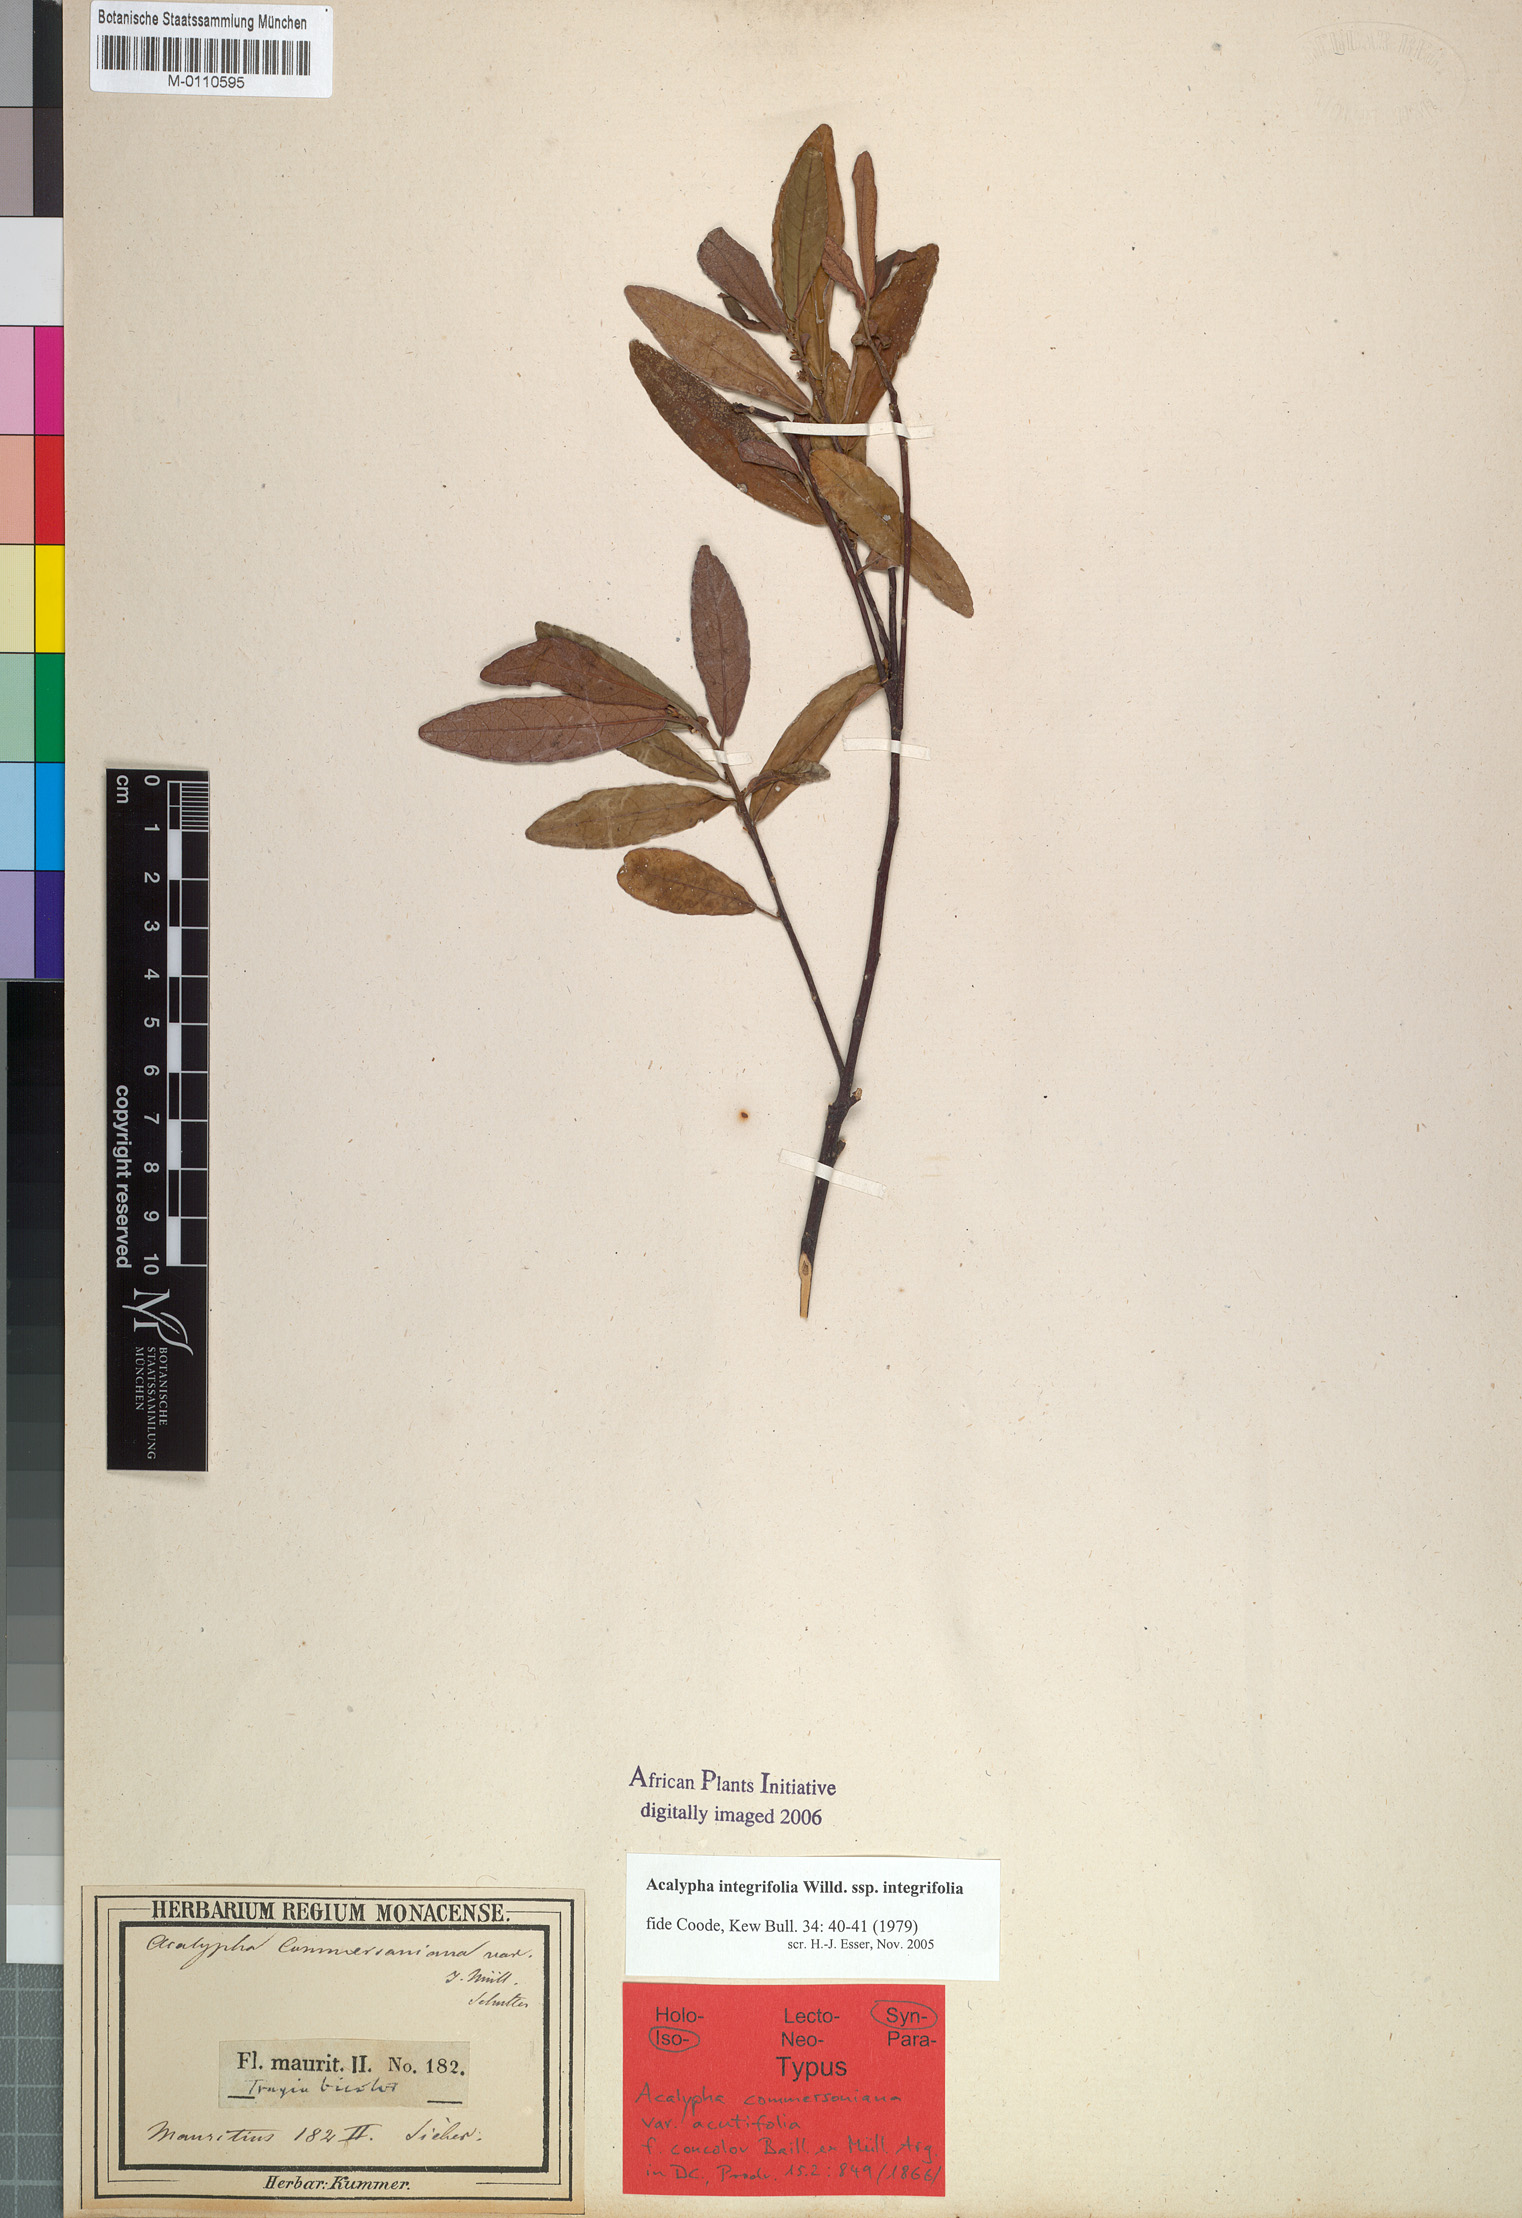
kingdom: Plantae
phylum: Tracheophyta
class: Magnoliopsida
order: Malpighiales
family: Euphorbiaceae
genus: Acalypha
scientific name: Acalypha integrifolia
